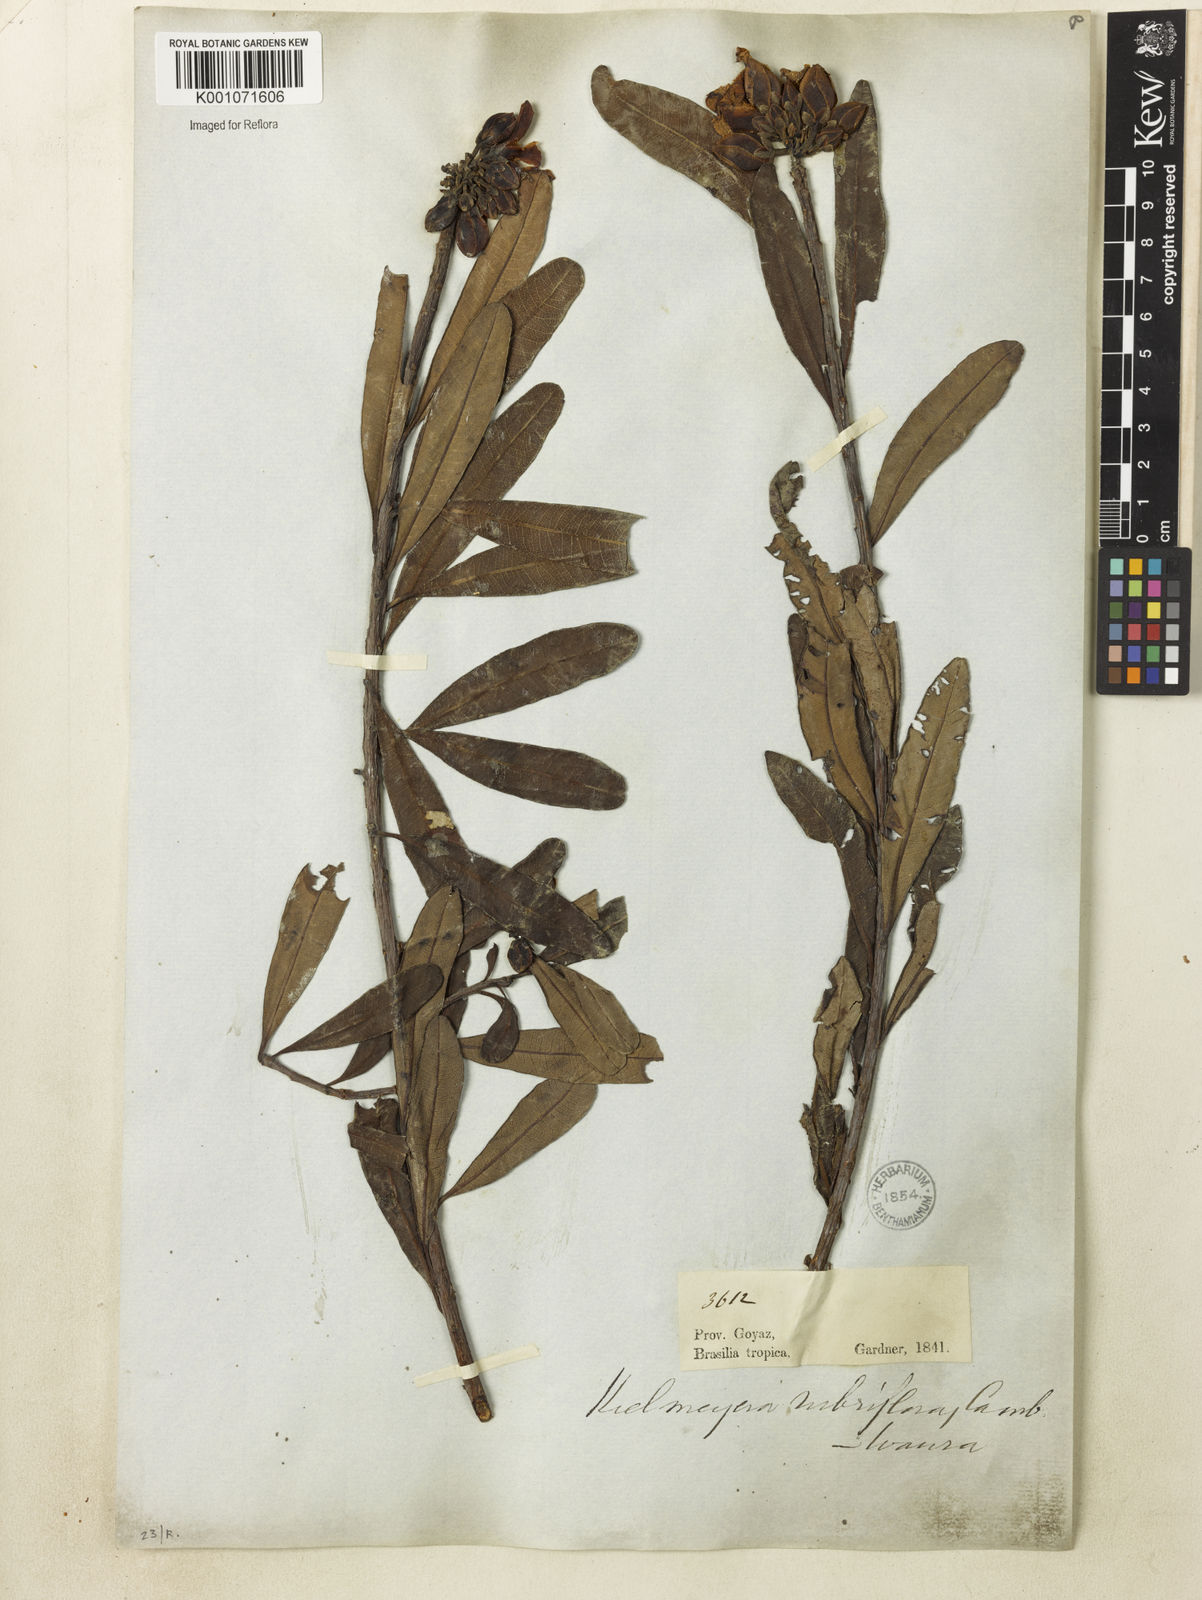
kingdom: Plantae
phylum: Tracheophyta
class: Magnoliopsida
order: Malpighiales
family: Calophyllaceae
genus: Kielmeyera
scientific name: Kielmeyera rubriflora
